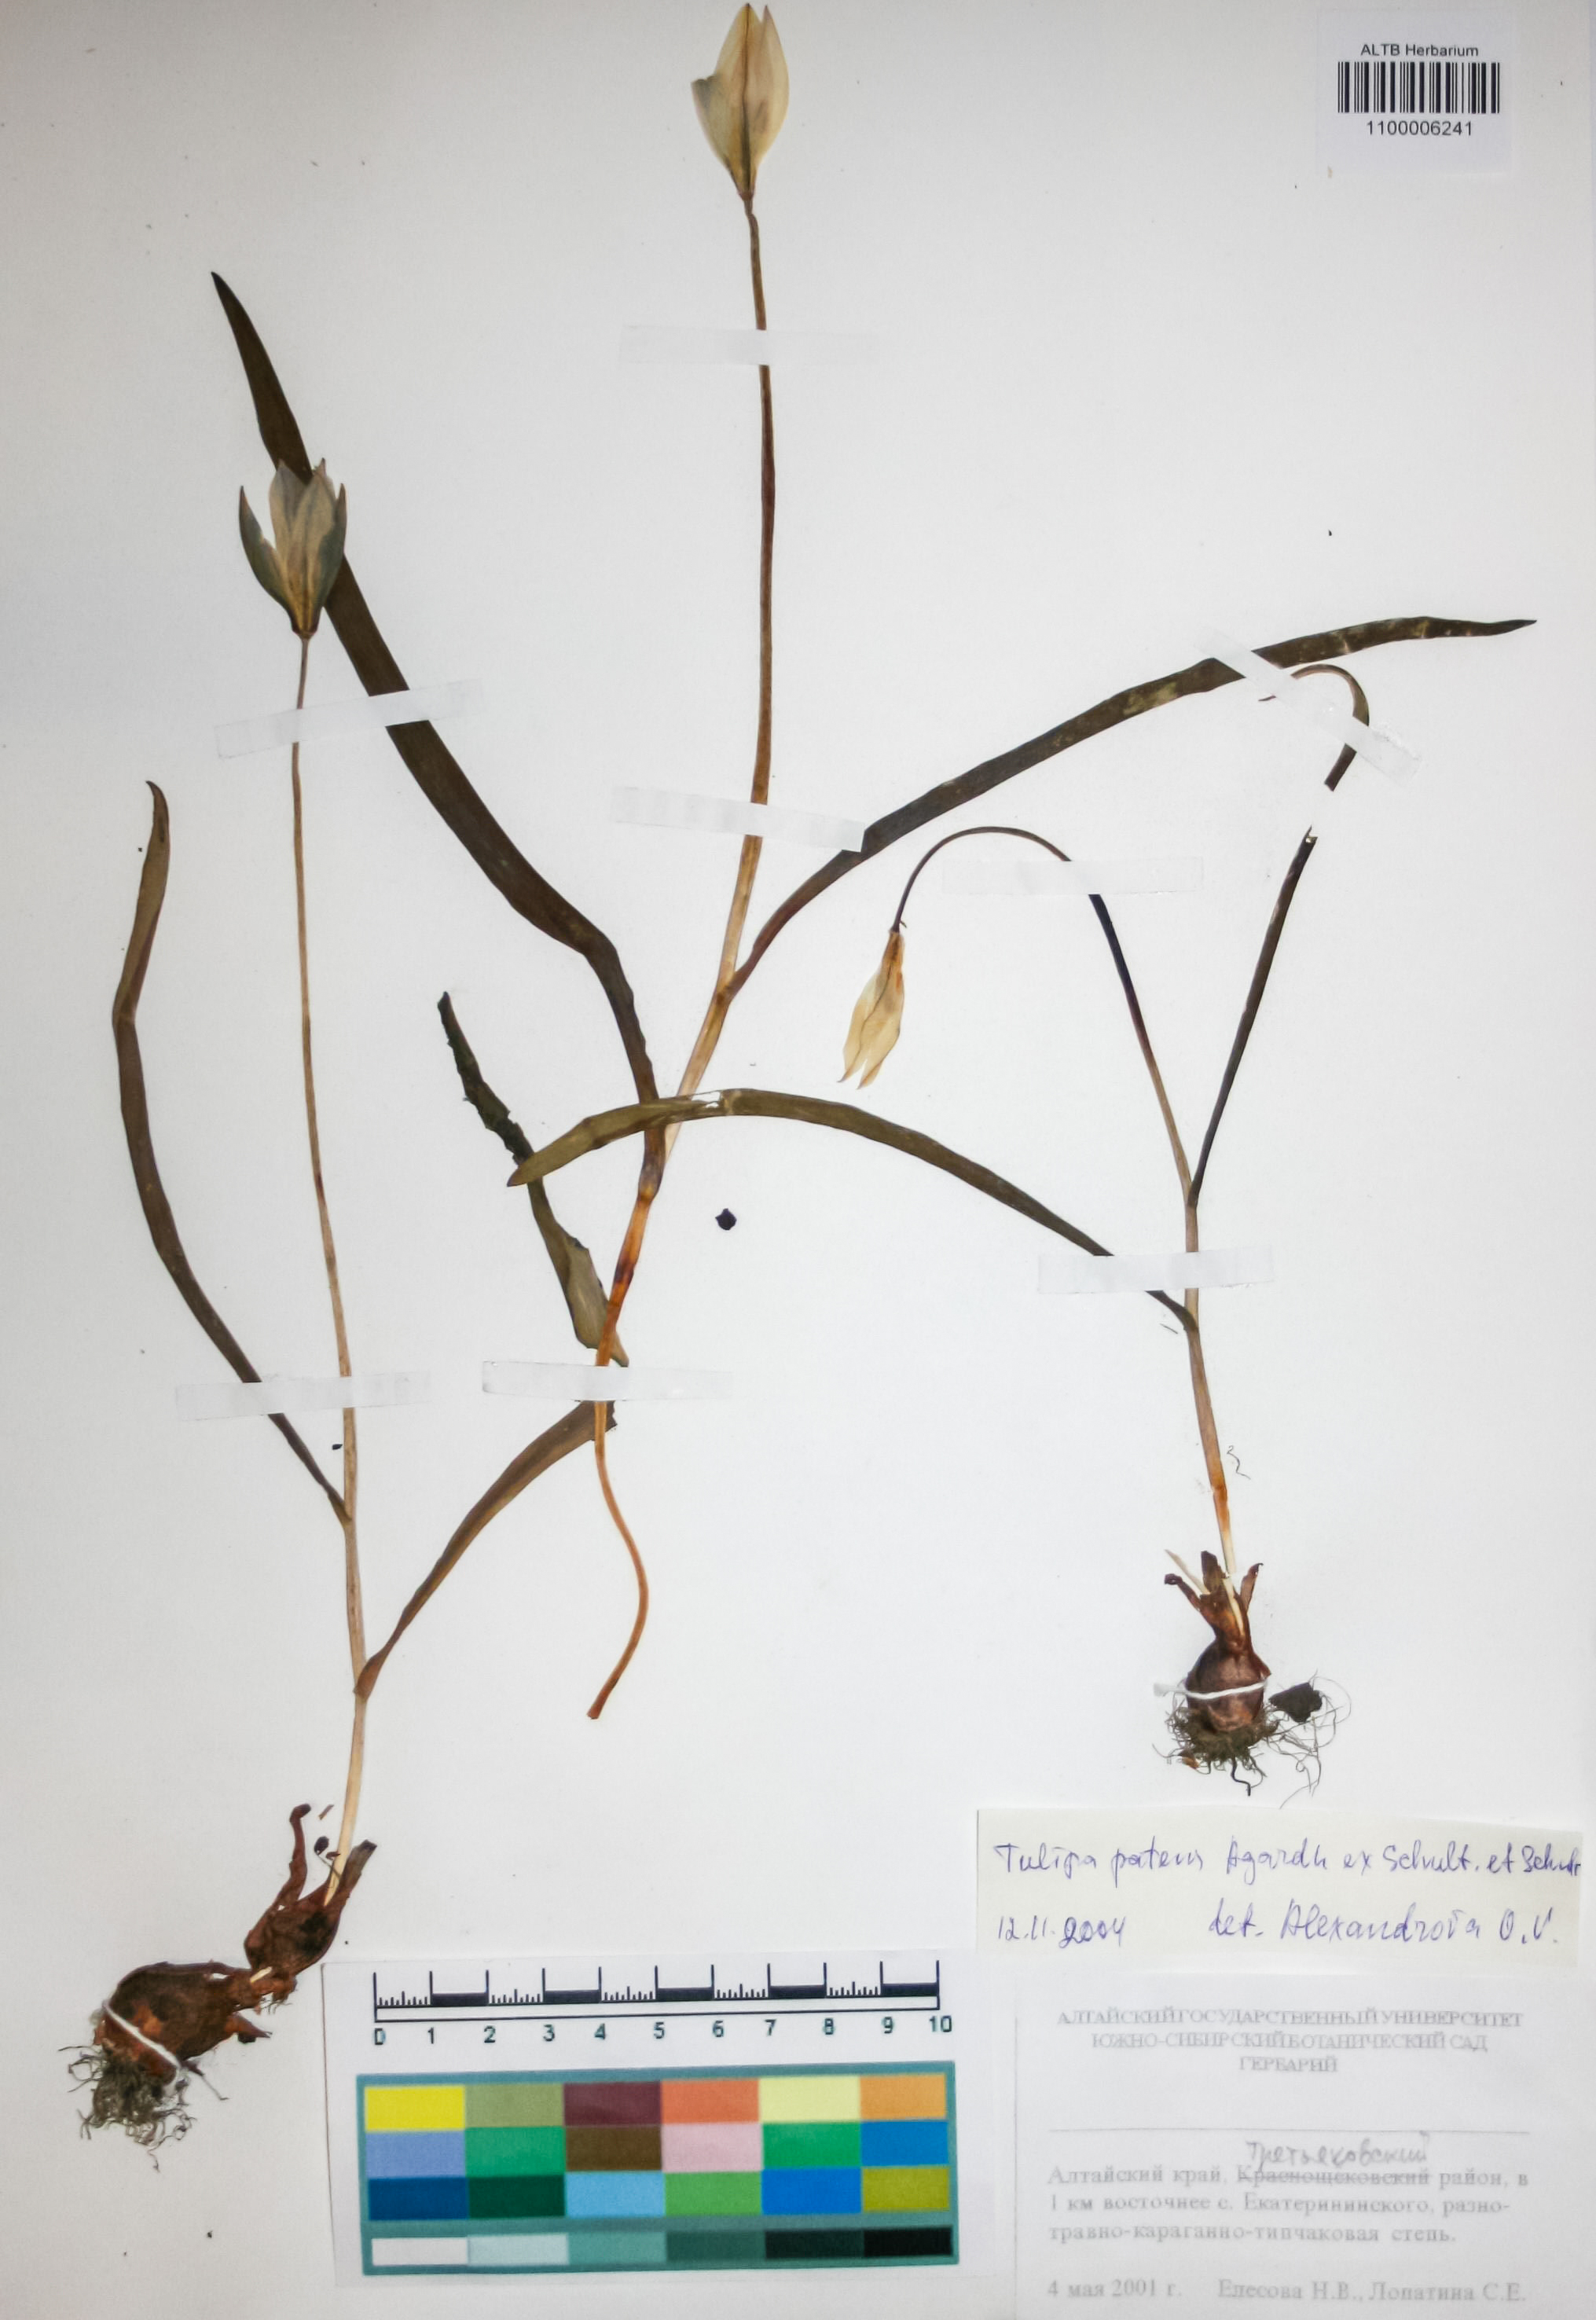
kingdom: Plantae
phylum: Tracheophyta
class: Liliopsida
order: Liliales
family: Liliaceae
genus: Tulipa
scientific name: Tulipa patens
